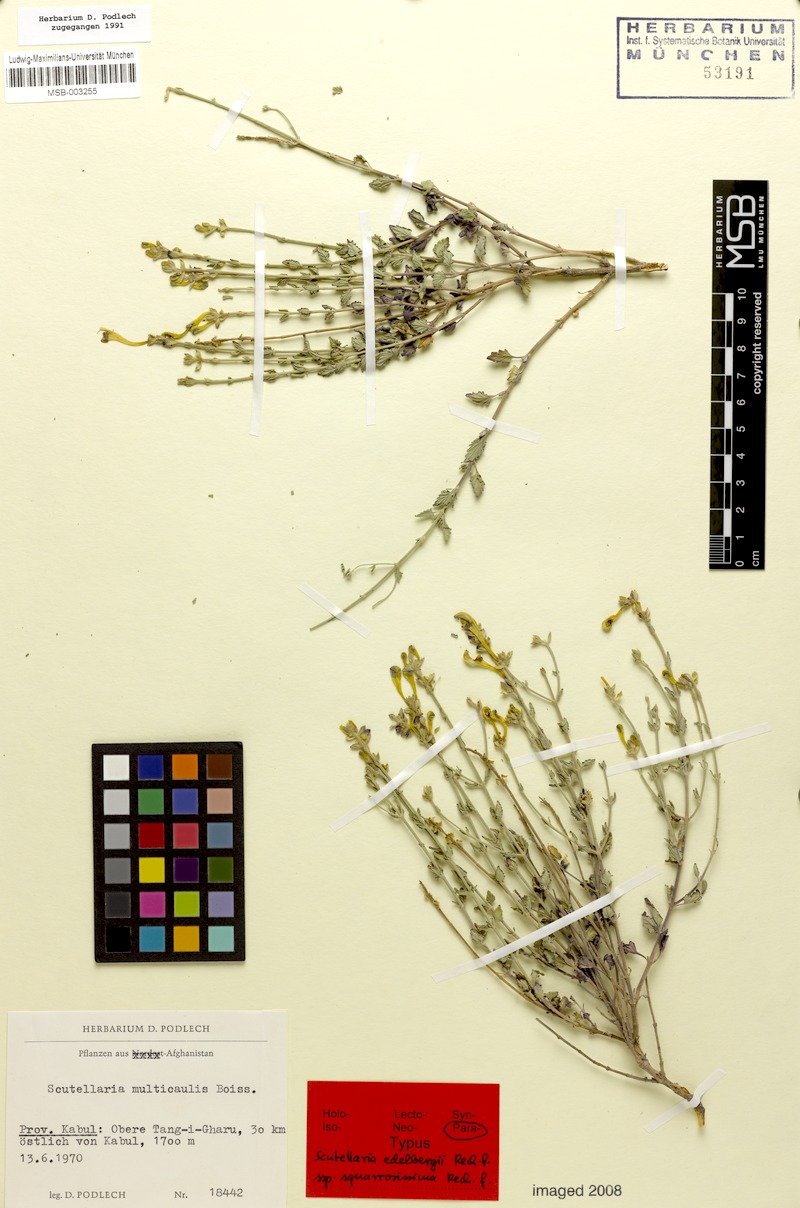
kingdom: Plantae
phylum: Tracheophyta
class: Magnoliopsida
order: Lamiales
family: Lamiaceae
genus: Scutellaria
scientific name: Scutellaria edelbergii
